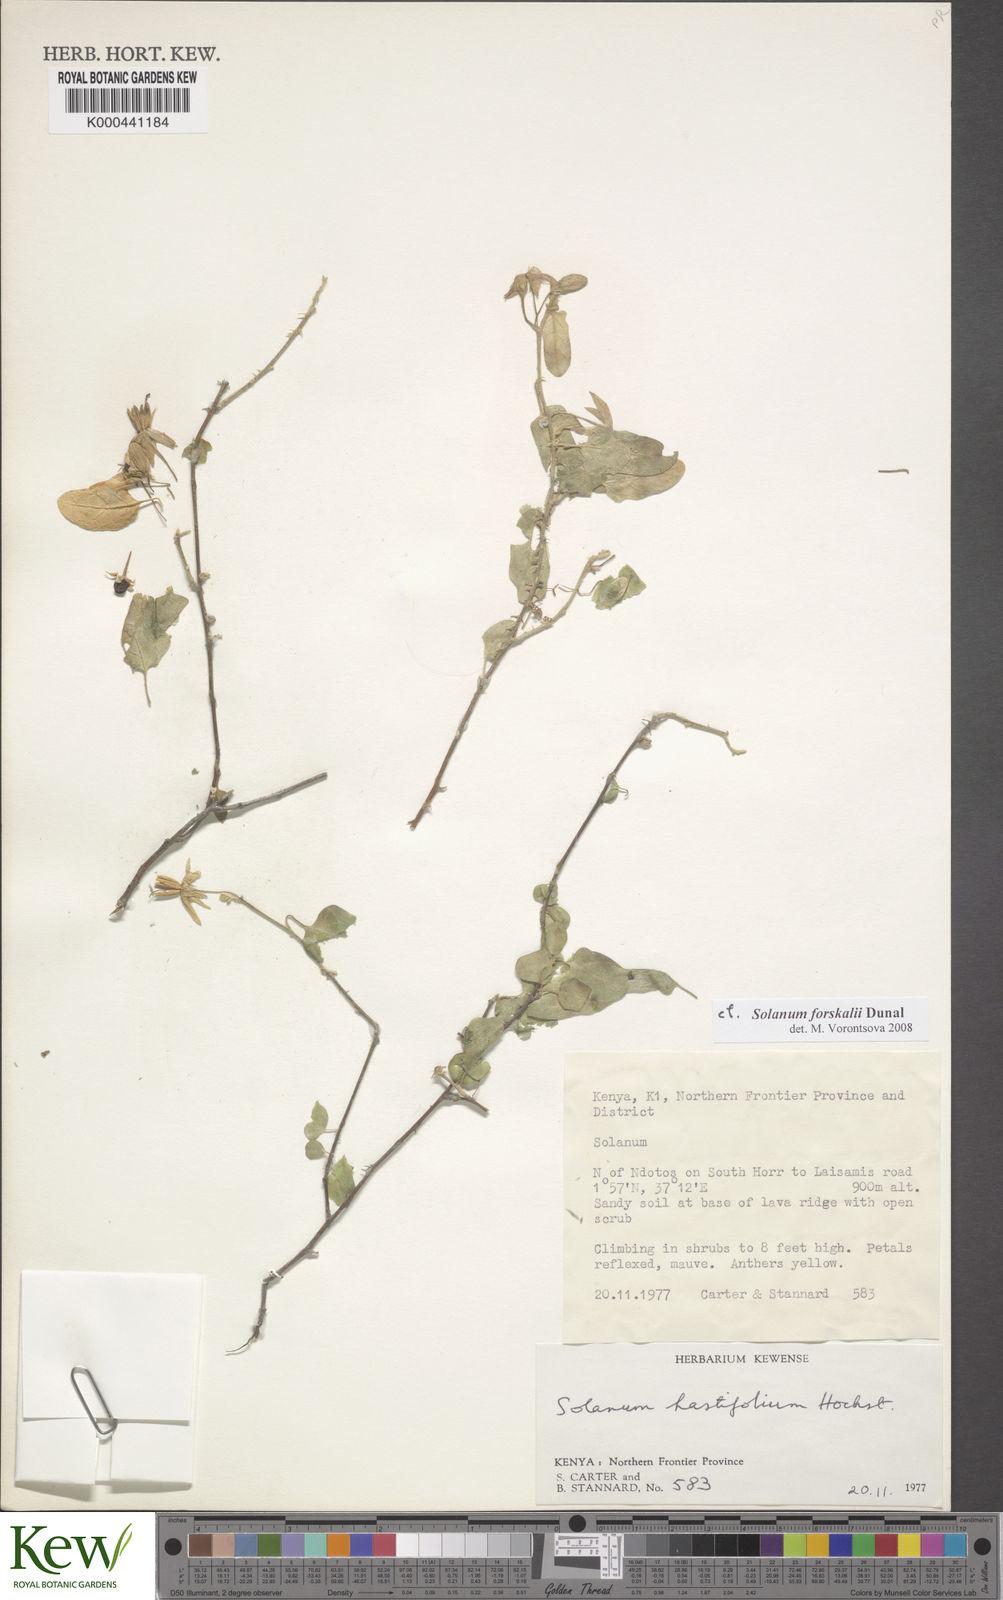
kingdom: Plantae
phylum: Tracheophyta
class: Magnoliopsida
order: Solanales
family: Solanaceae
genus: Solanum
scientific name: Solanum hastifolium
